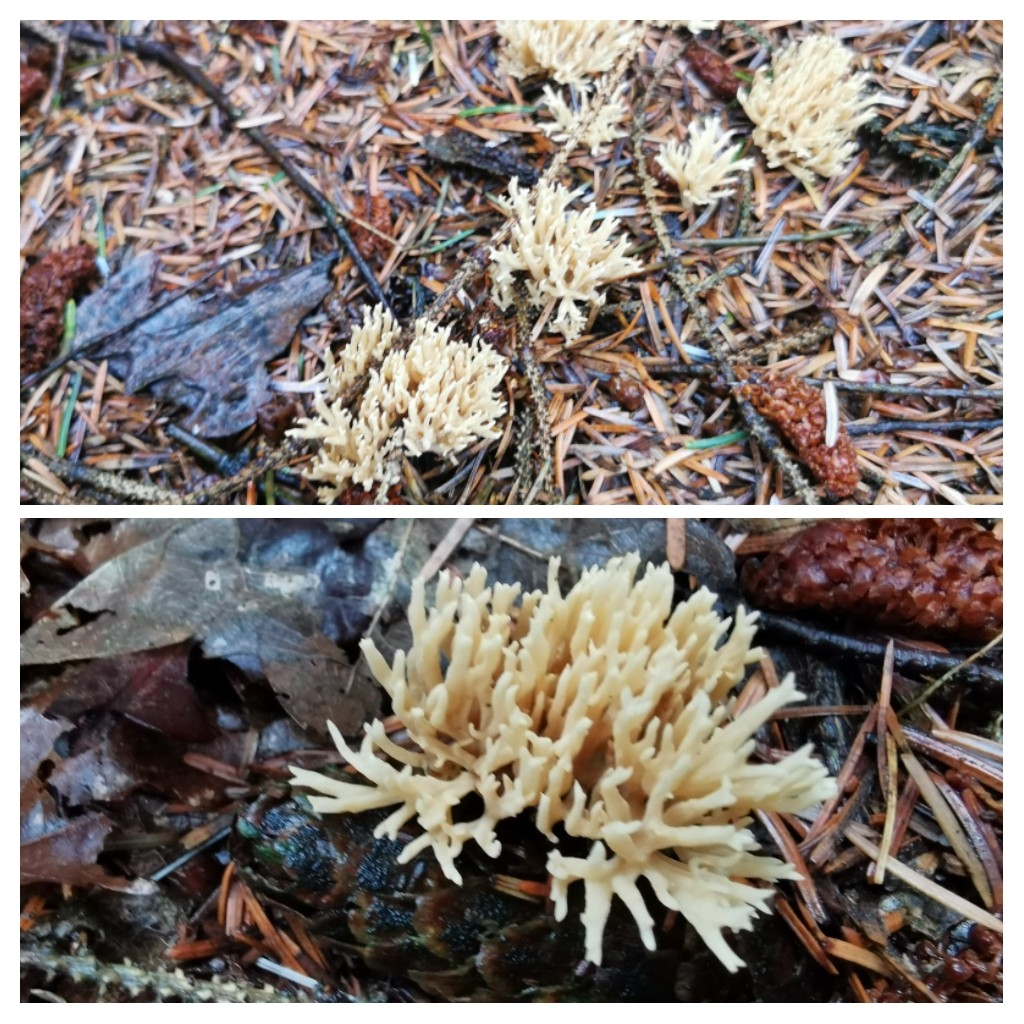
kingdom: Fungi
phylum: Basidiomycota
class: Agaricomycetes
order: Gomphales
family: Gomphaceae
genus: Phaeoclavulina
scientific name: Phaeoclavulina eumorpha
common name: gran-koralsvamp
